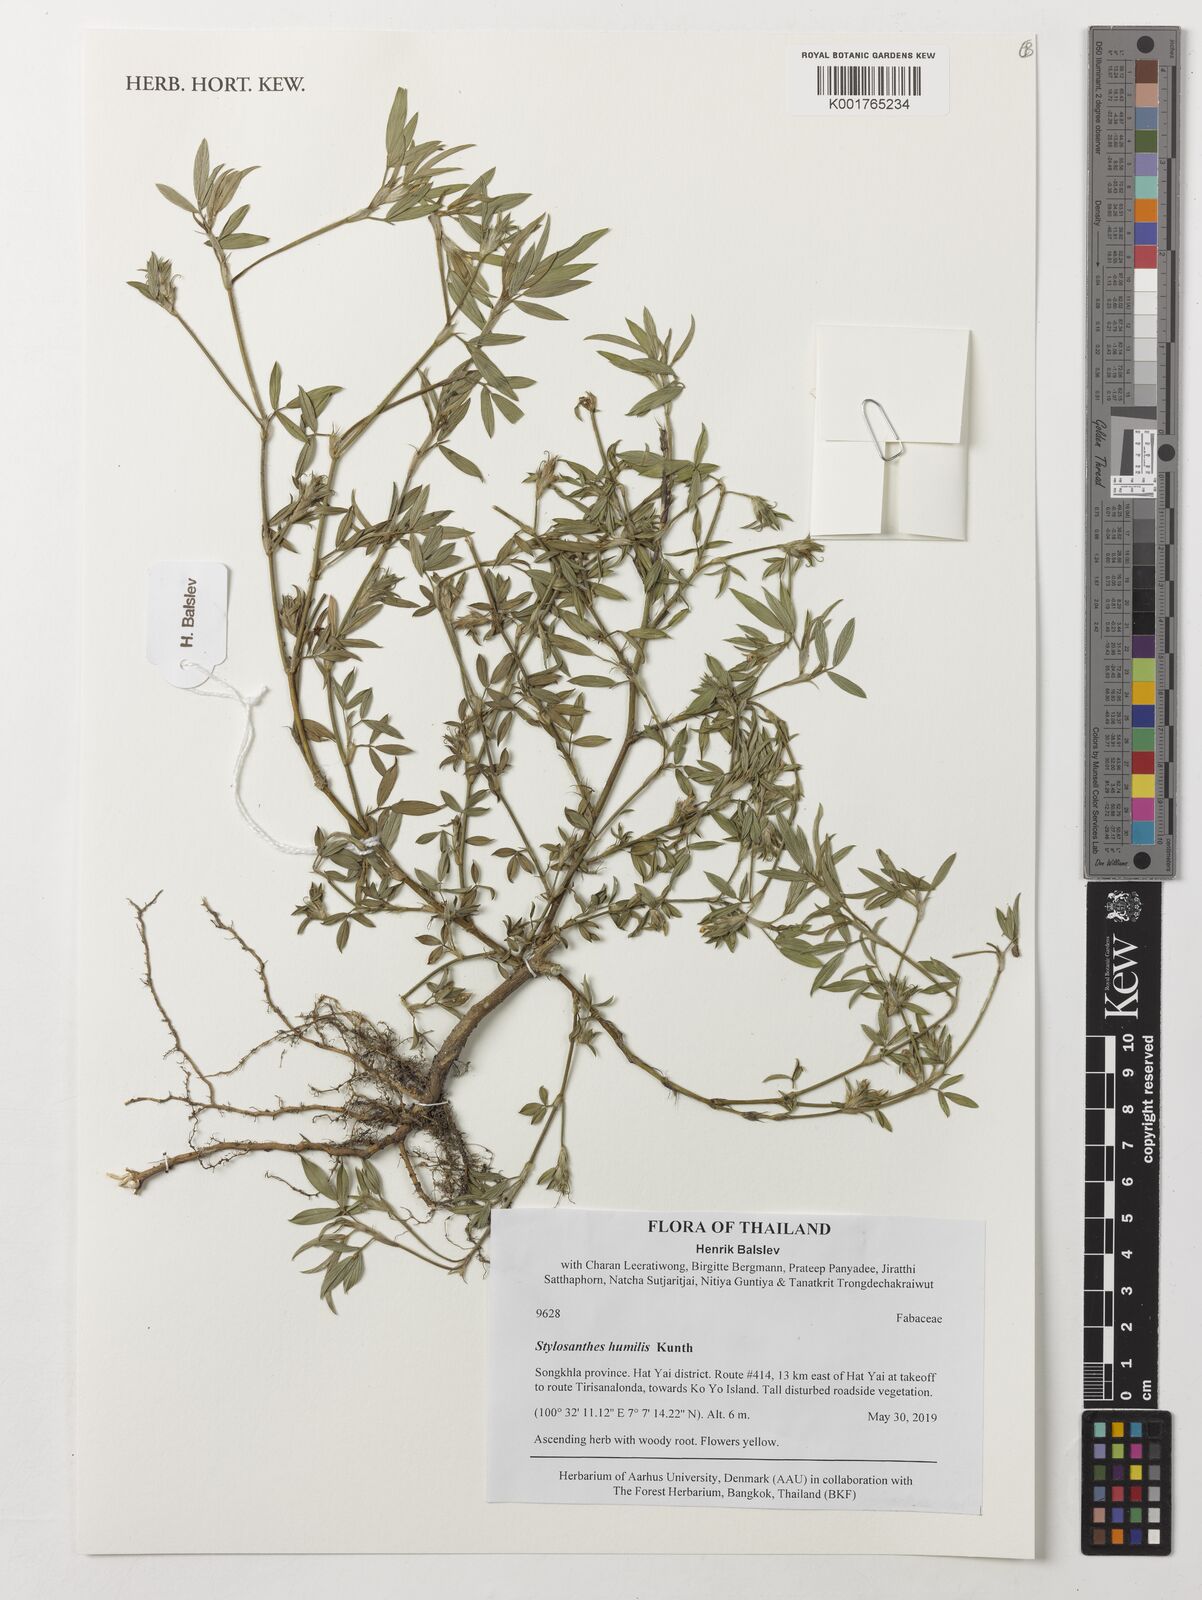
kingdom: Plantae
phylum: Tracheophyta
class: Magnoliopsida
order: Fabales
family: Fabaceae
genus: Stylosanthes
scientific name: Stylosanthes humilis
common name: Townsville stylo
